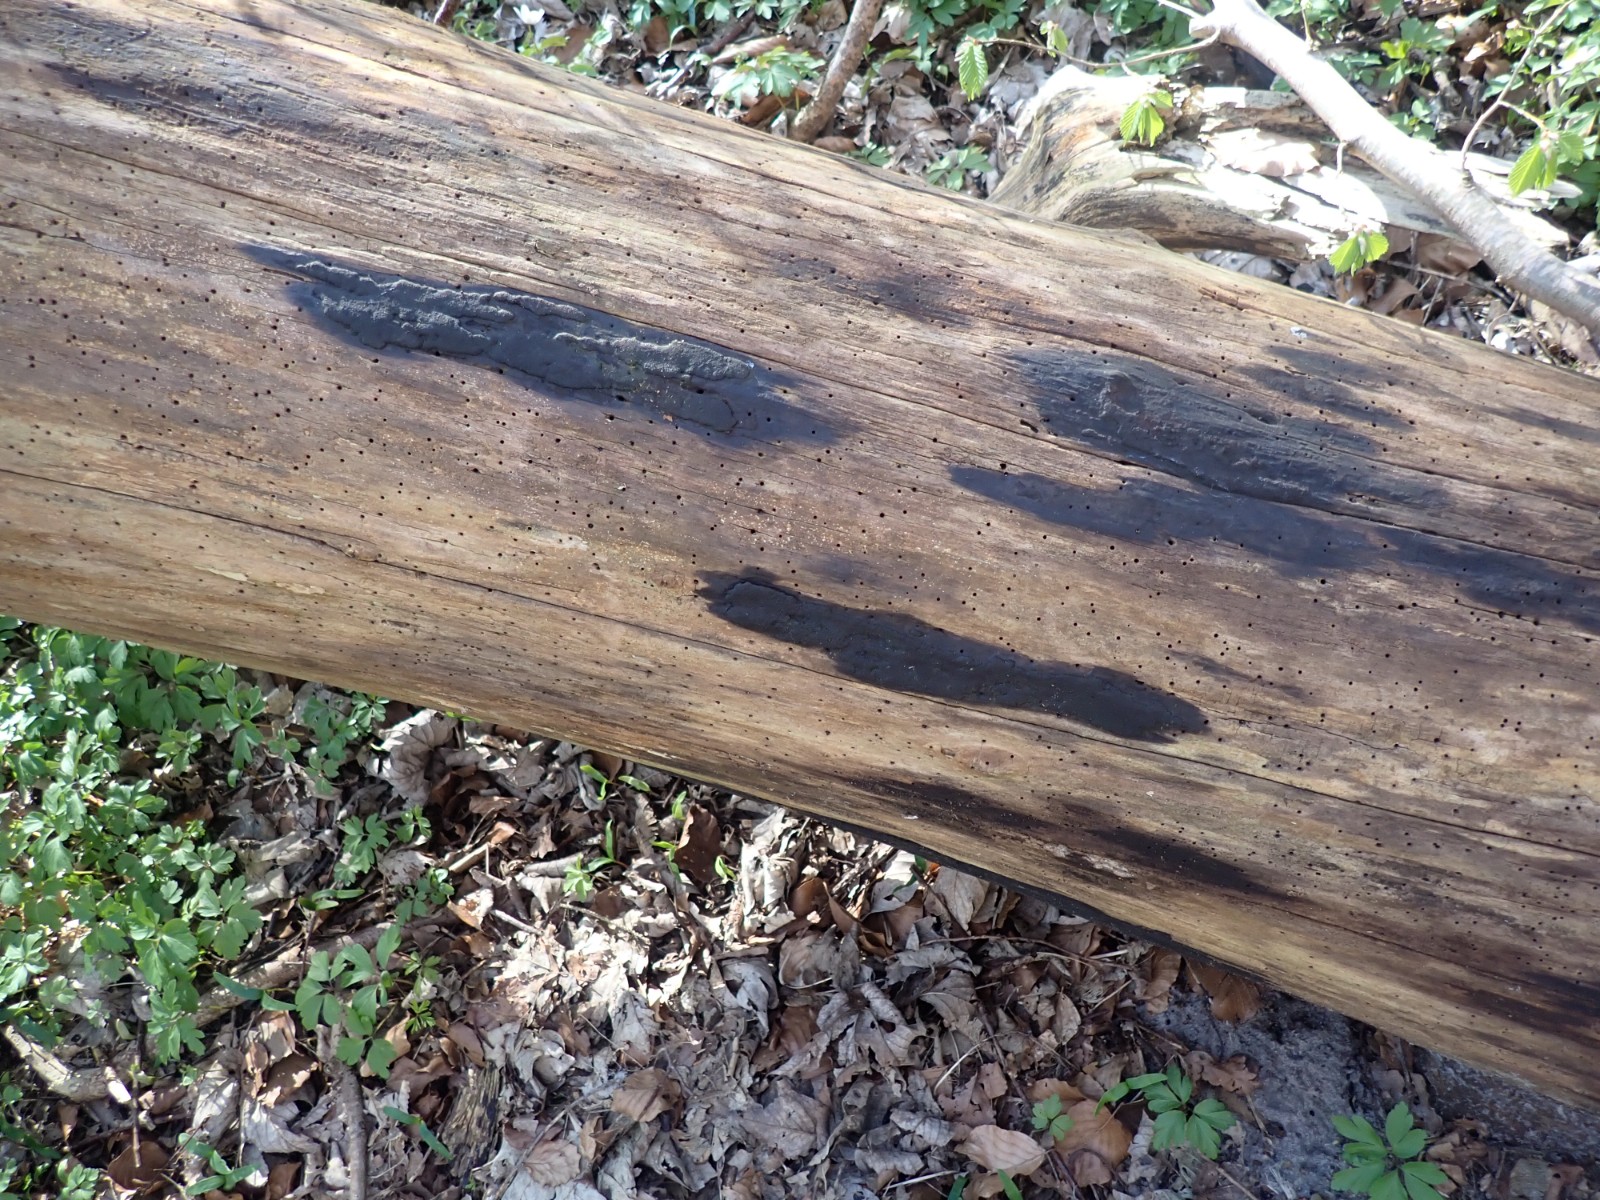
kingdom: Fungi
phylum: Ascomycota
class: Sordariomycetes
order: Xylariales
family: Hypoxylaceae
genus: Hypoxylon
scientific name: Hypoxylon macrocarpum
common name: skorpe-kulbær
